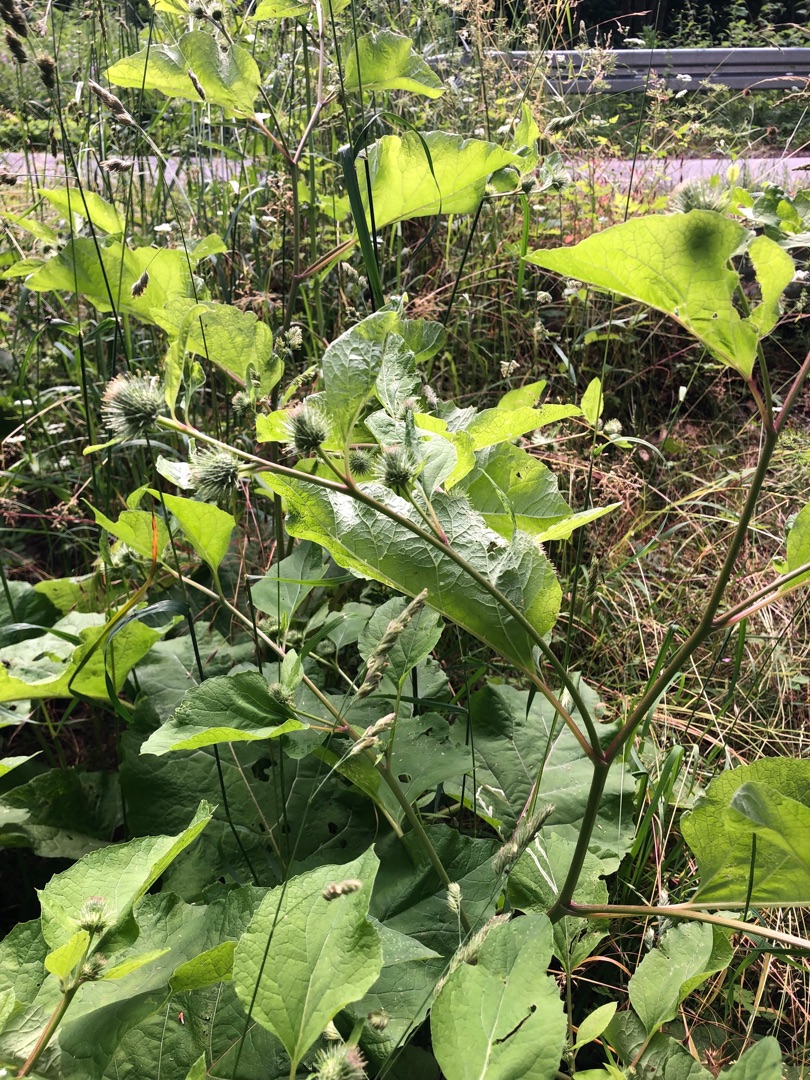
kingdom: Plantae
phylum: Tracheophyta
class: Magnoliopsida
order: Asterales
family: Asteraceae
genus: Arctium
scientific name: Arctium nemorosum
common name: Skov-burre
